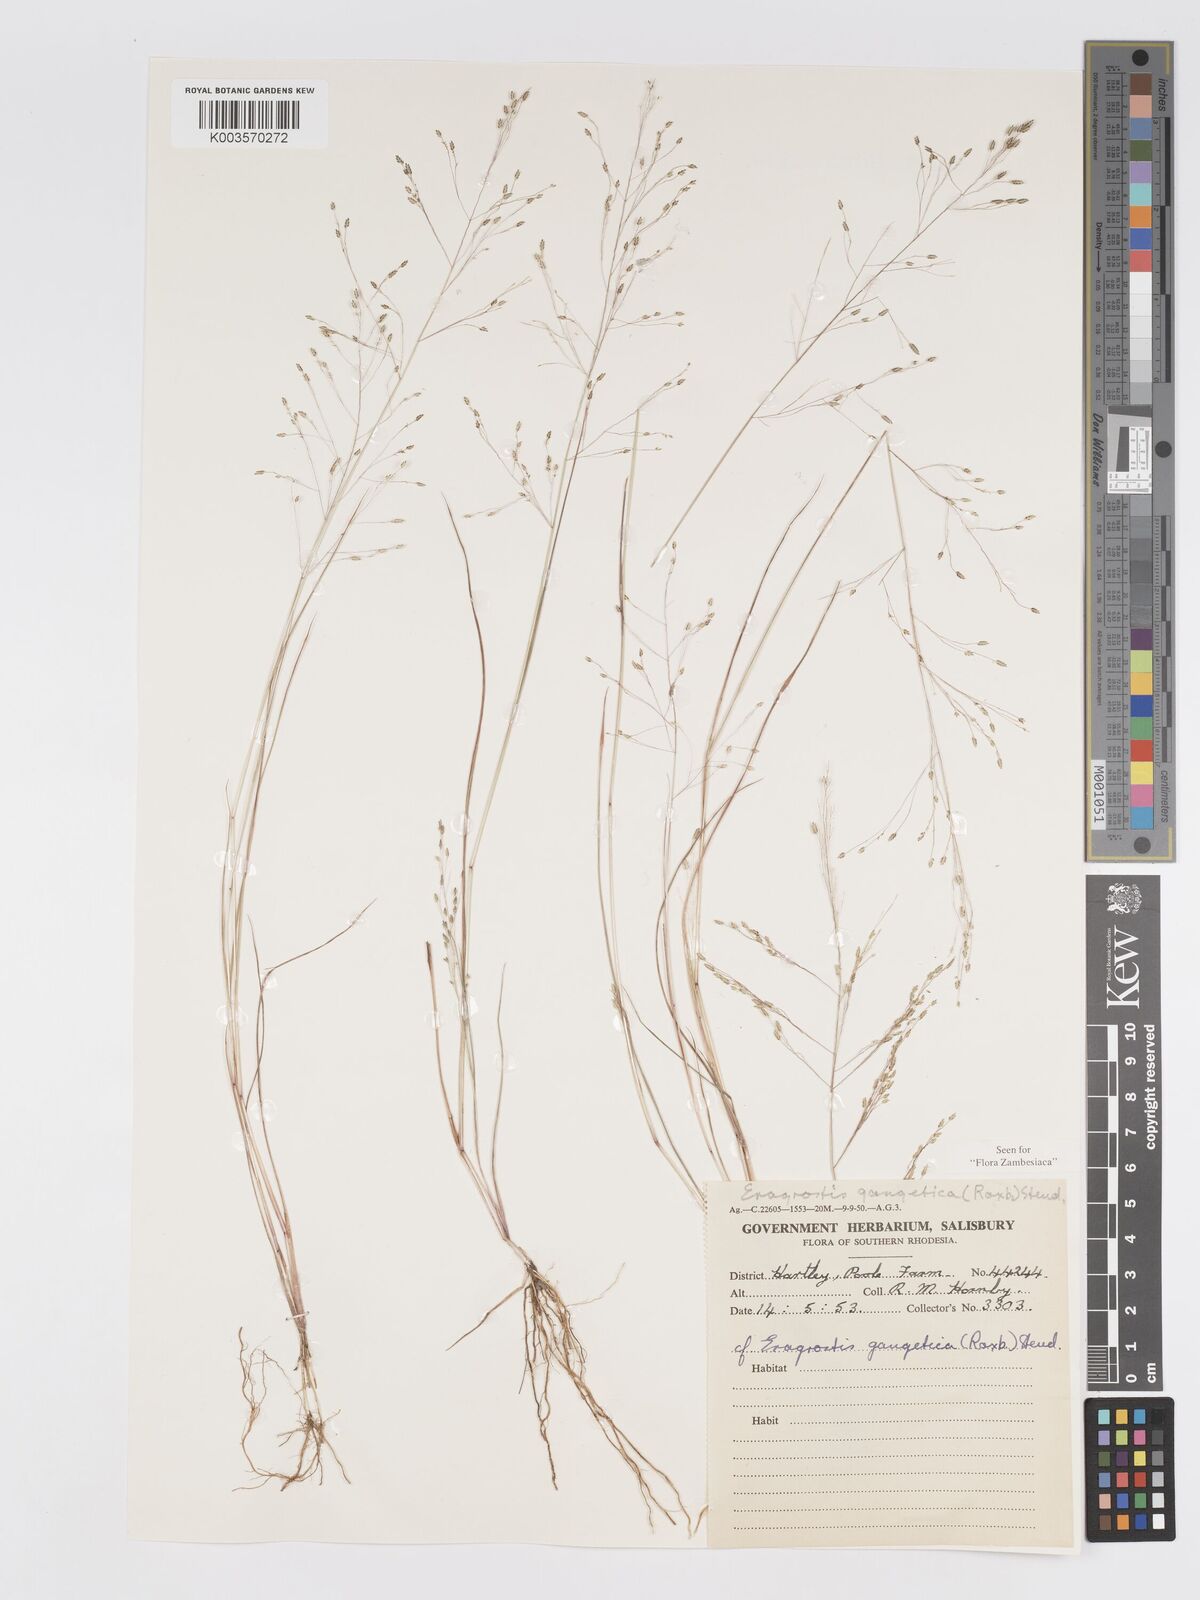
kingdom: Plantae
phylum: Tracheophyta
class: Liliopsida
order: Poales
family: Poaceae
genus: Eragrostis
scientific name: Eragrostis gangetica
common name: Slimflower lovegrass
